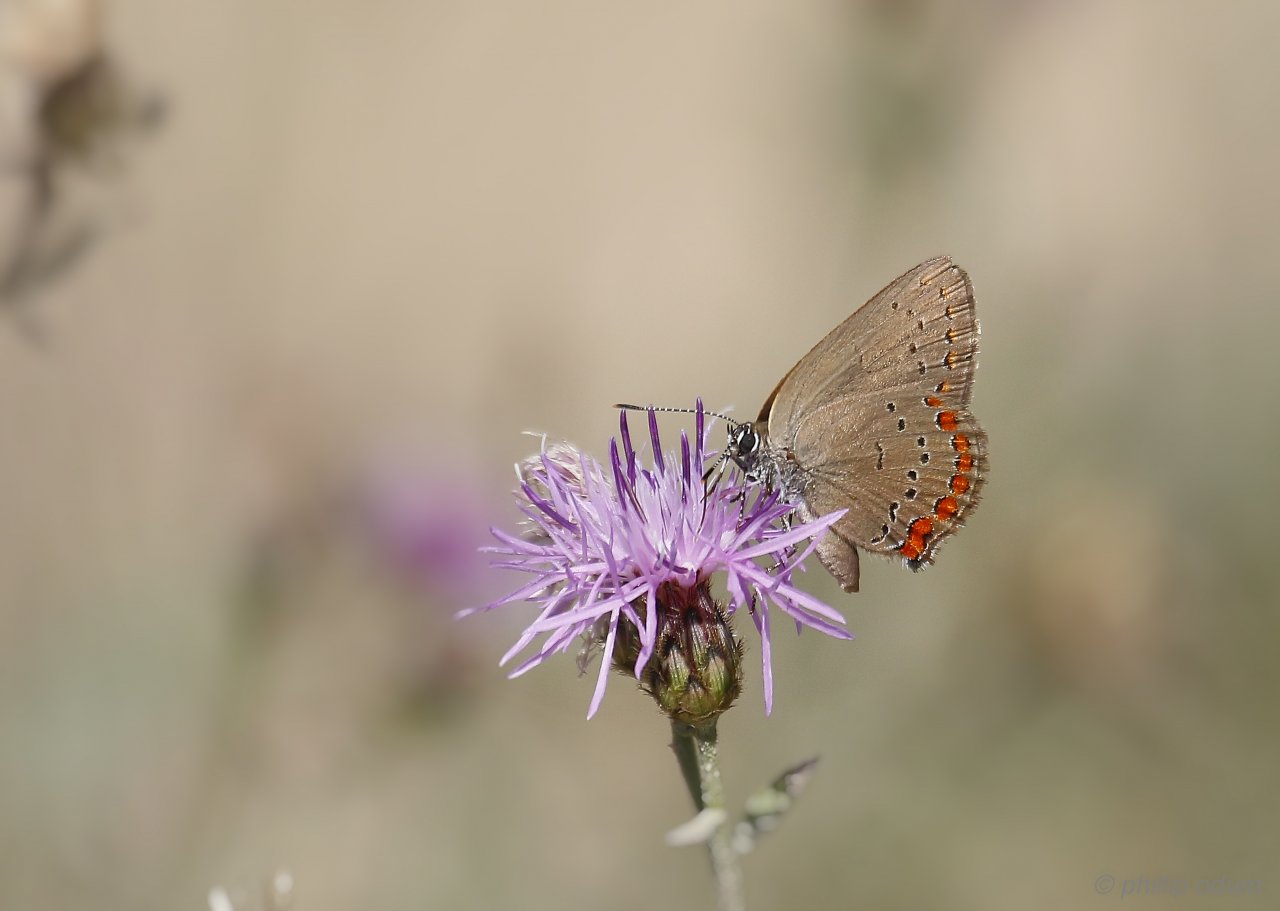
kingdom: Animalia
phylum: Arthropoda
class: Insecta
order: Lepidoptera
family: Lycaenidae
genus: Harkenclenus
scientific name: Harkenclenus titus
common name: Coral Hairstreak
